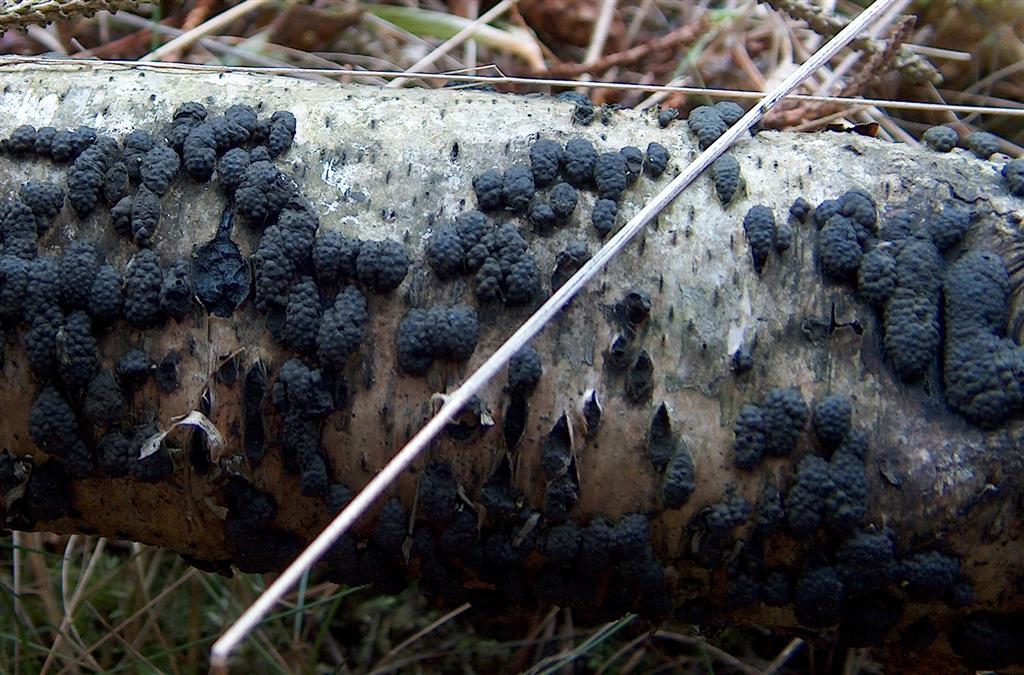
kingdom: Fungi
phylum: Ascomycota
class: Sordariomycetes
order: Xylariales
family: Hypoxylaceae
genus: Jackrogersella
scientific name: Jackrogersella multiformis
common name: foranderlig kulbær
